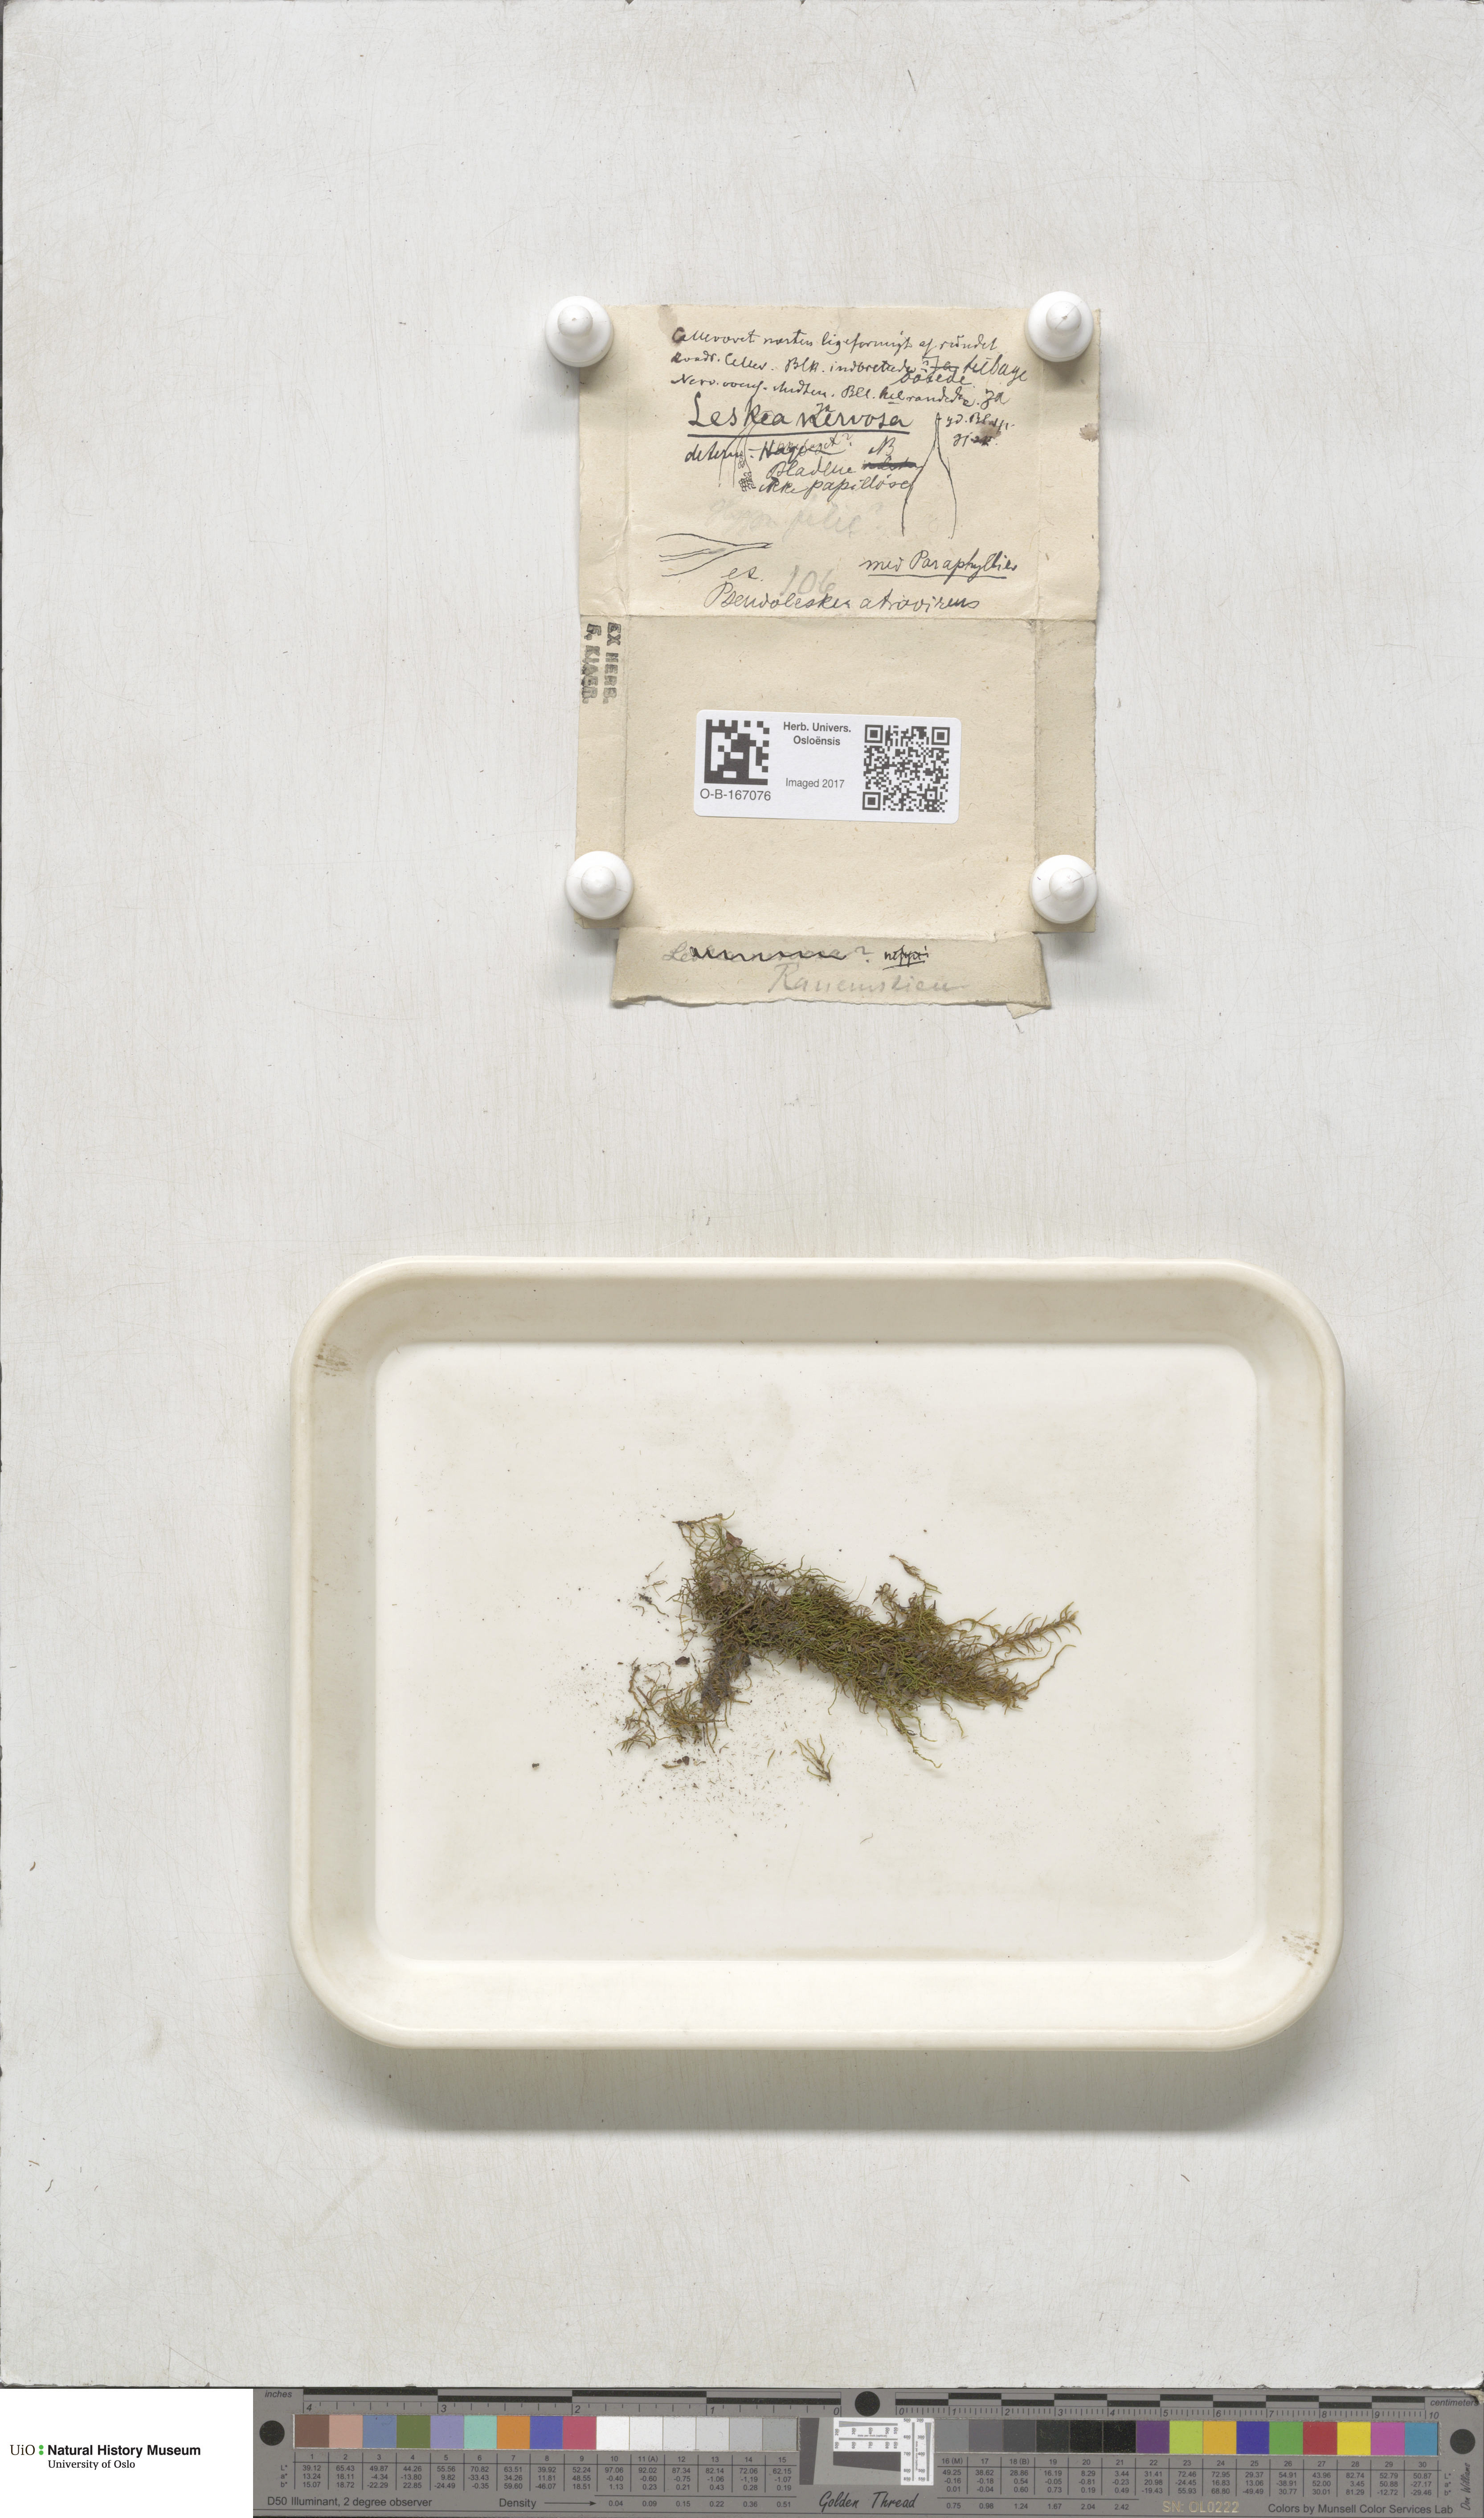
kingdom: Plantae
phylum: Bryophyta
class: Bryopsida
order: Hypnales
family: Pseudoleskeellaceae
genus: Pseudoleskeella
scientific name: Pseudoleskeella nervosa
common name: Nerved leske's moss
